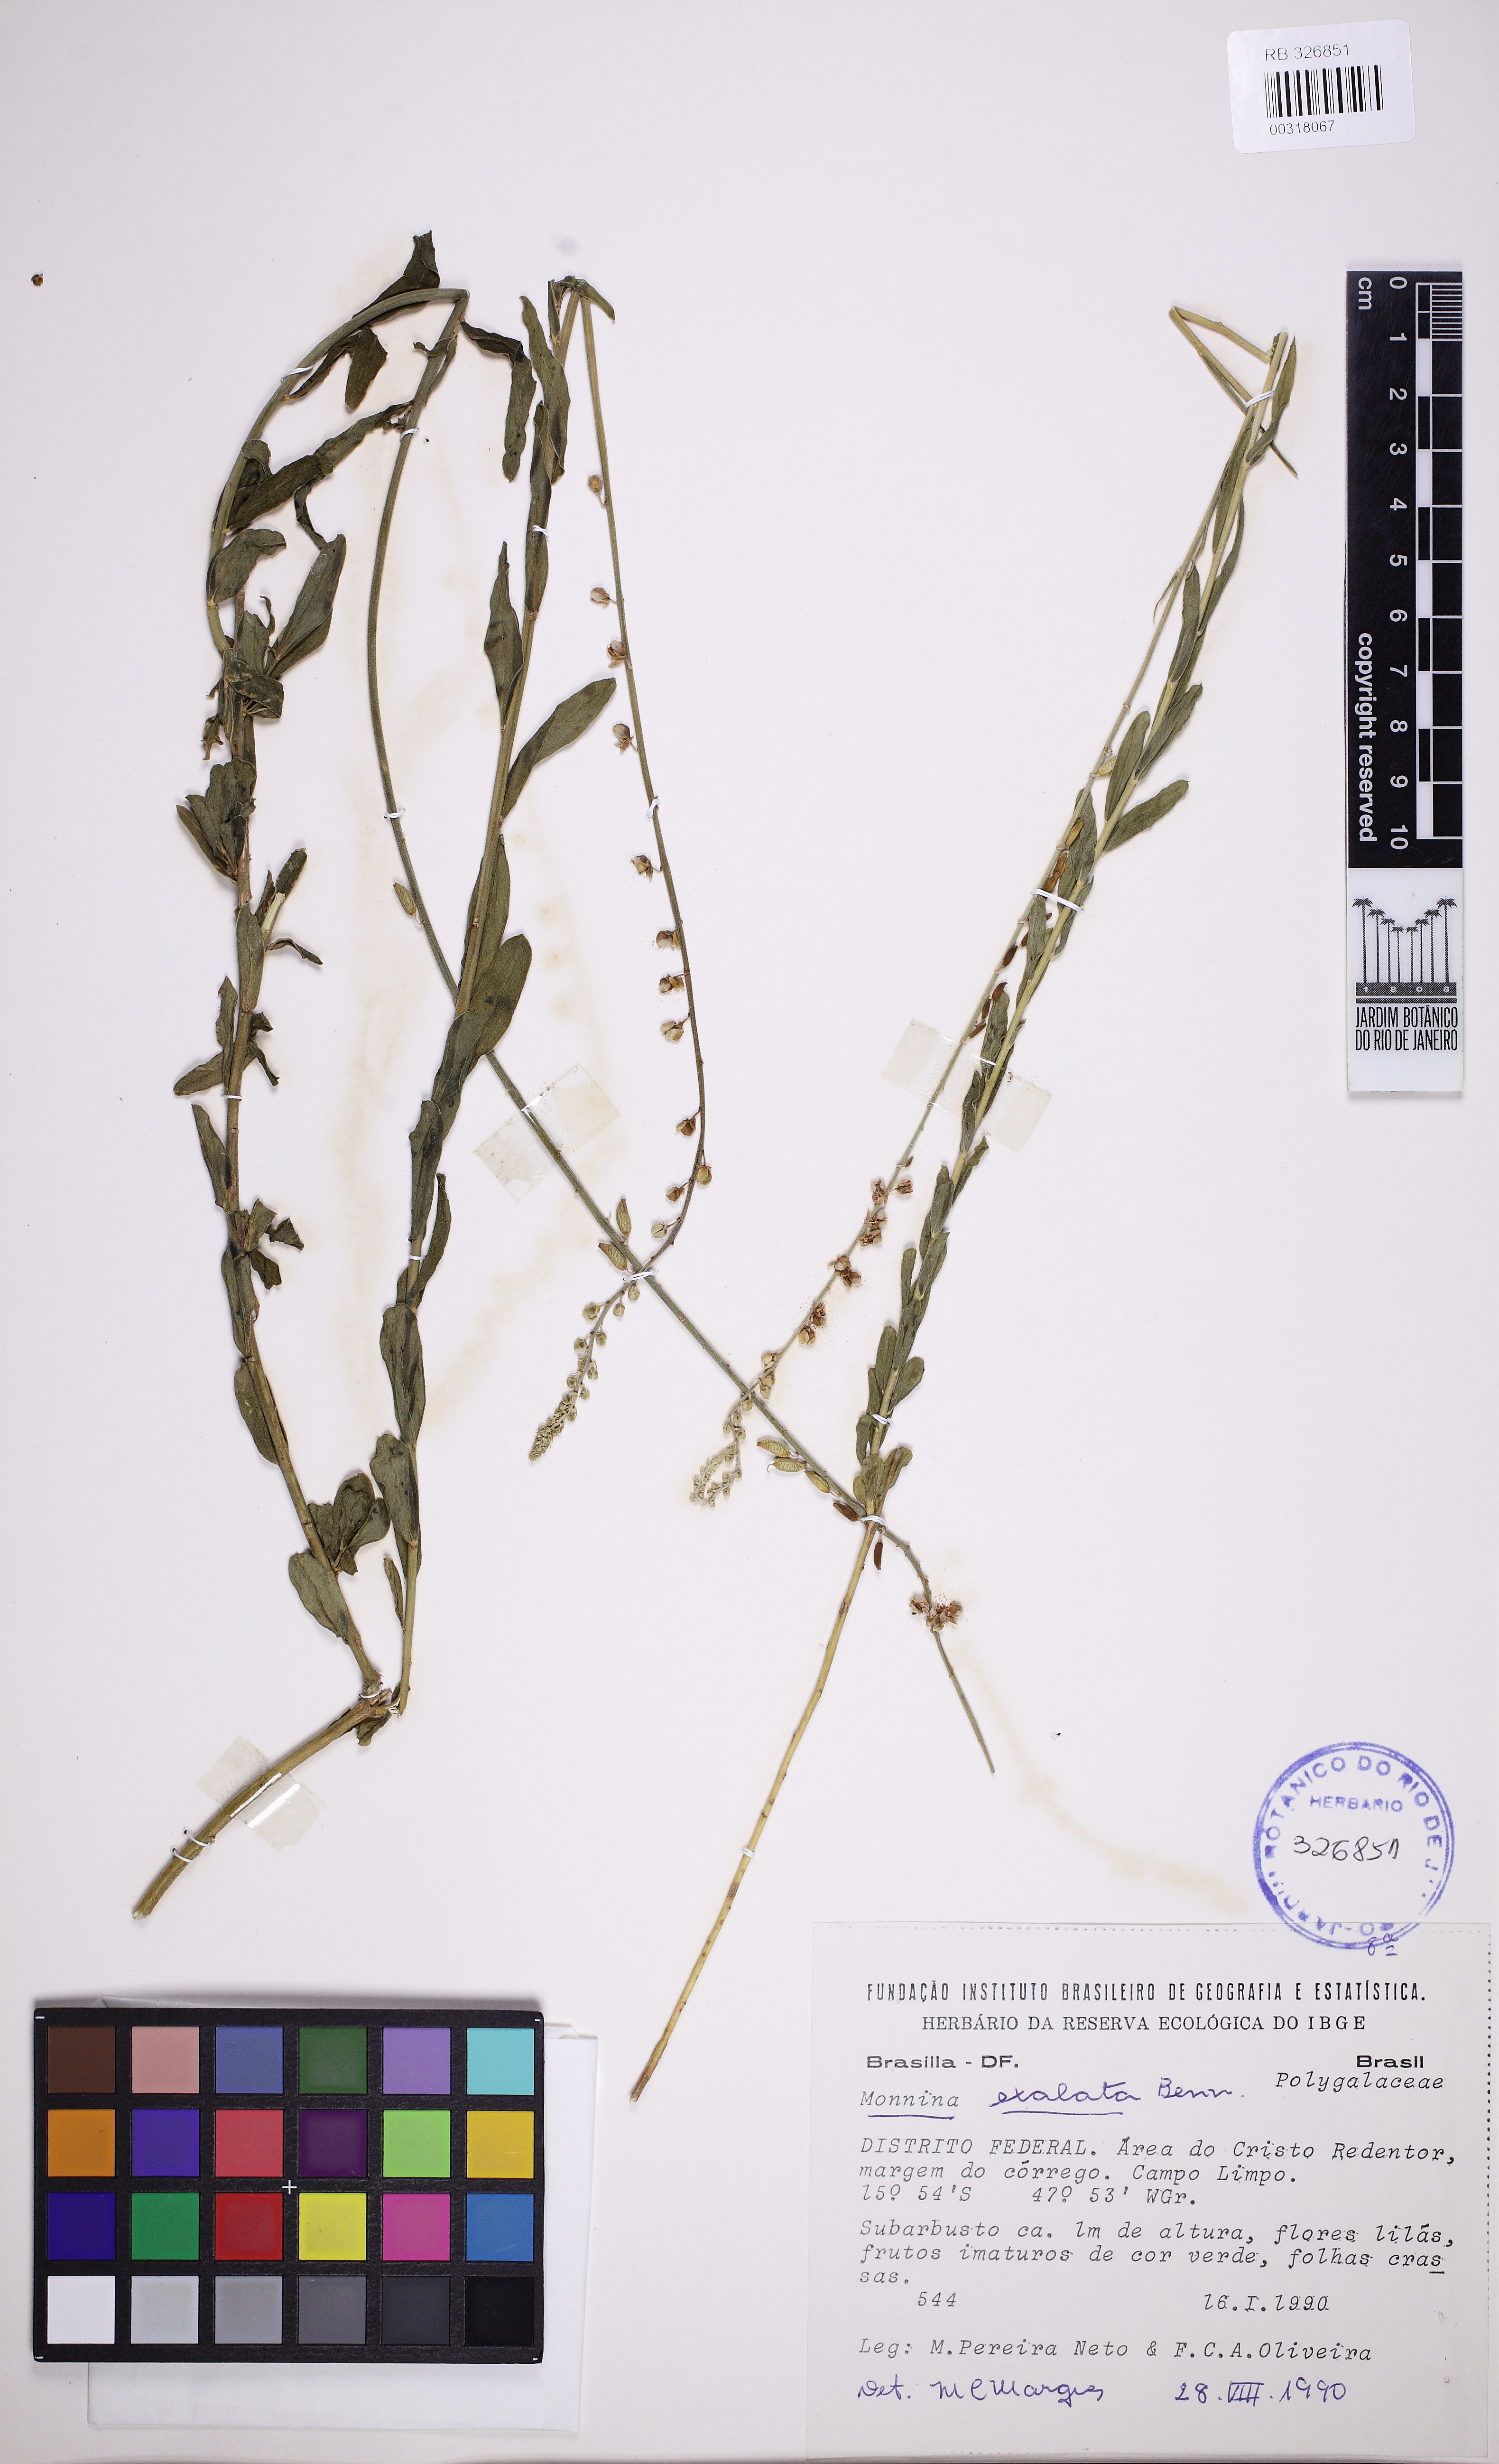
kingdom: Plantae
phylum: Tracheophyta
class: Magnoliopsida
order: Fabales
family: Polygalaceae
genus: Monnina
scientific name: Monnina exalata
